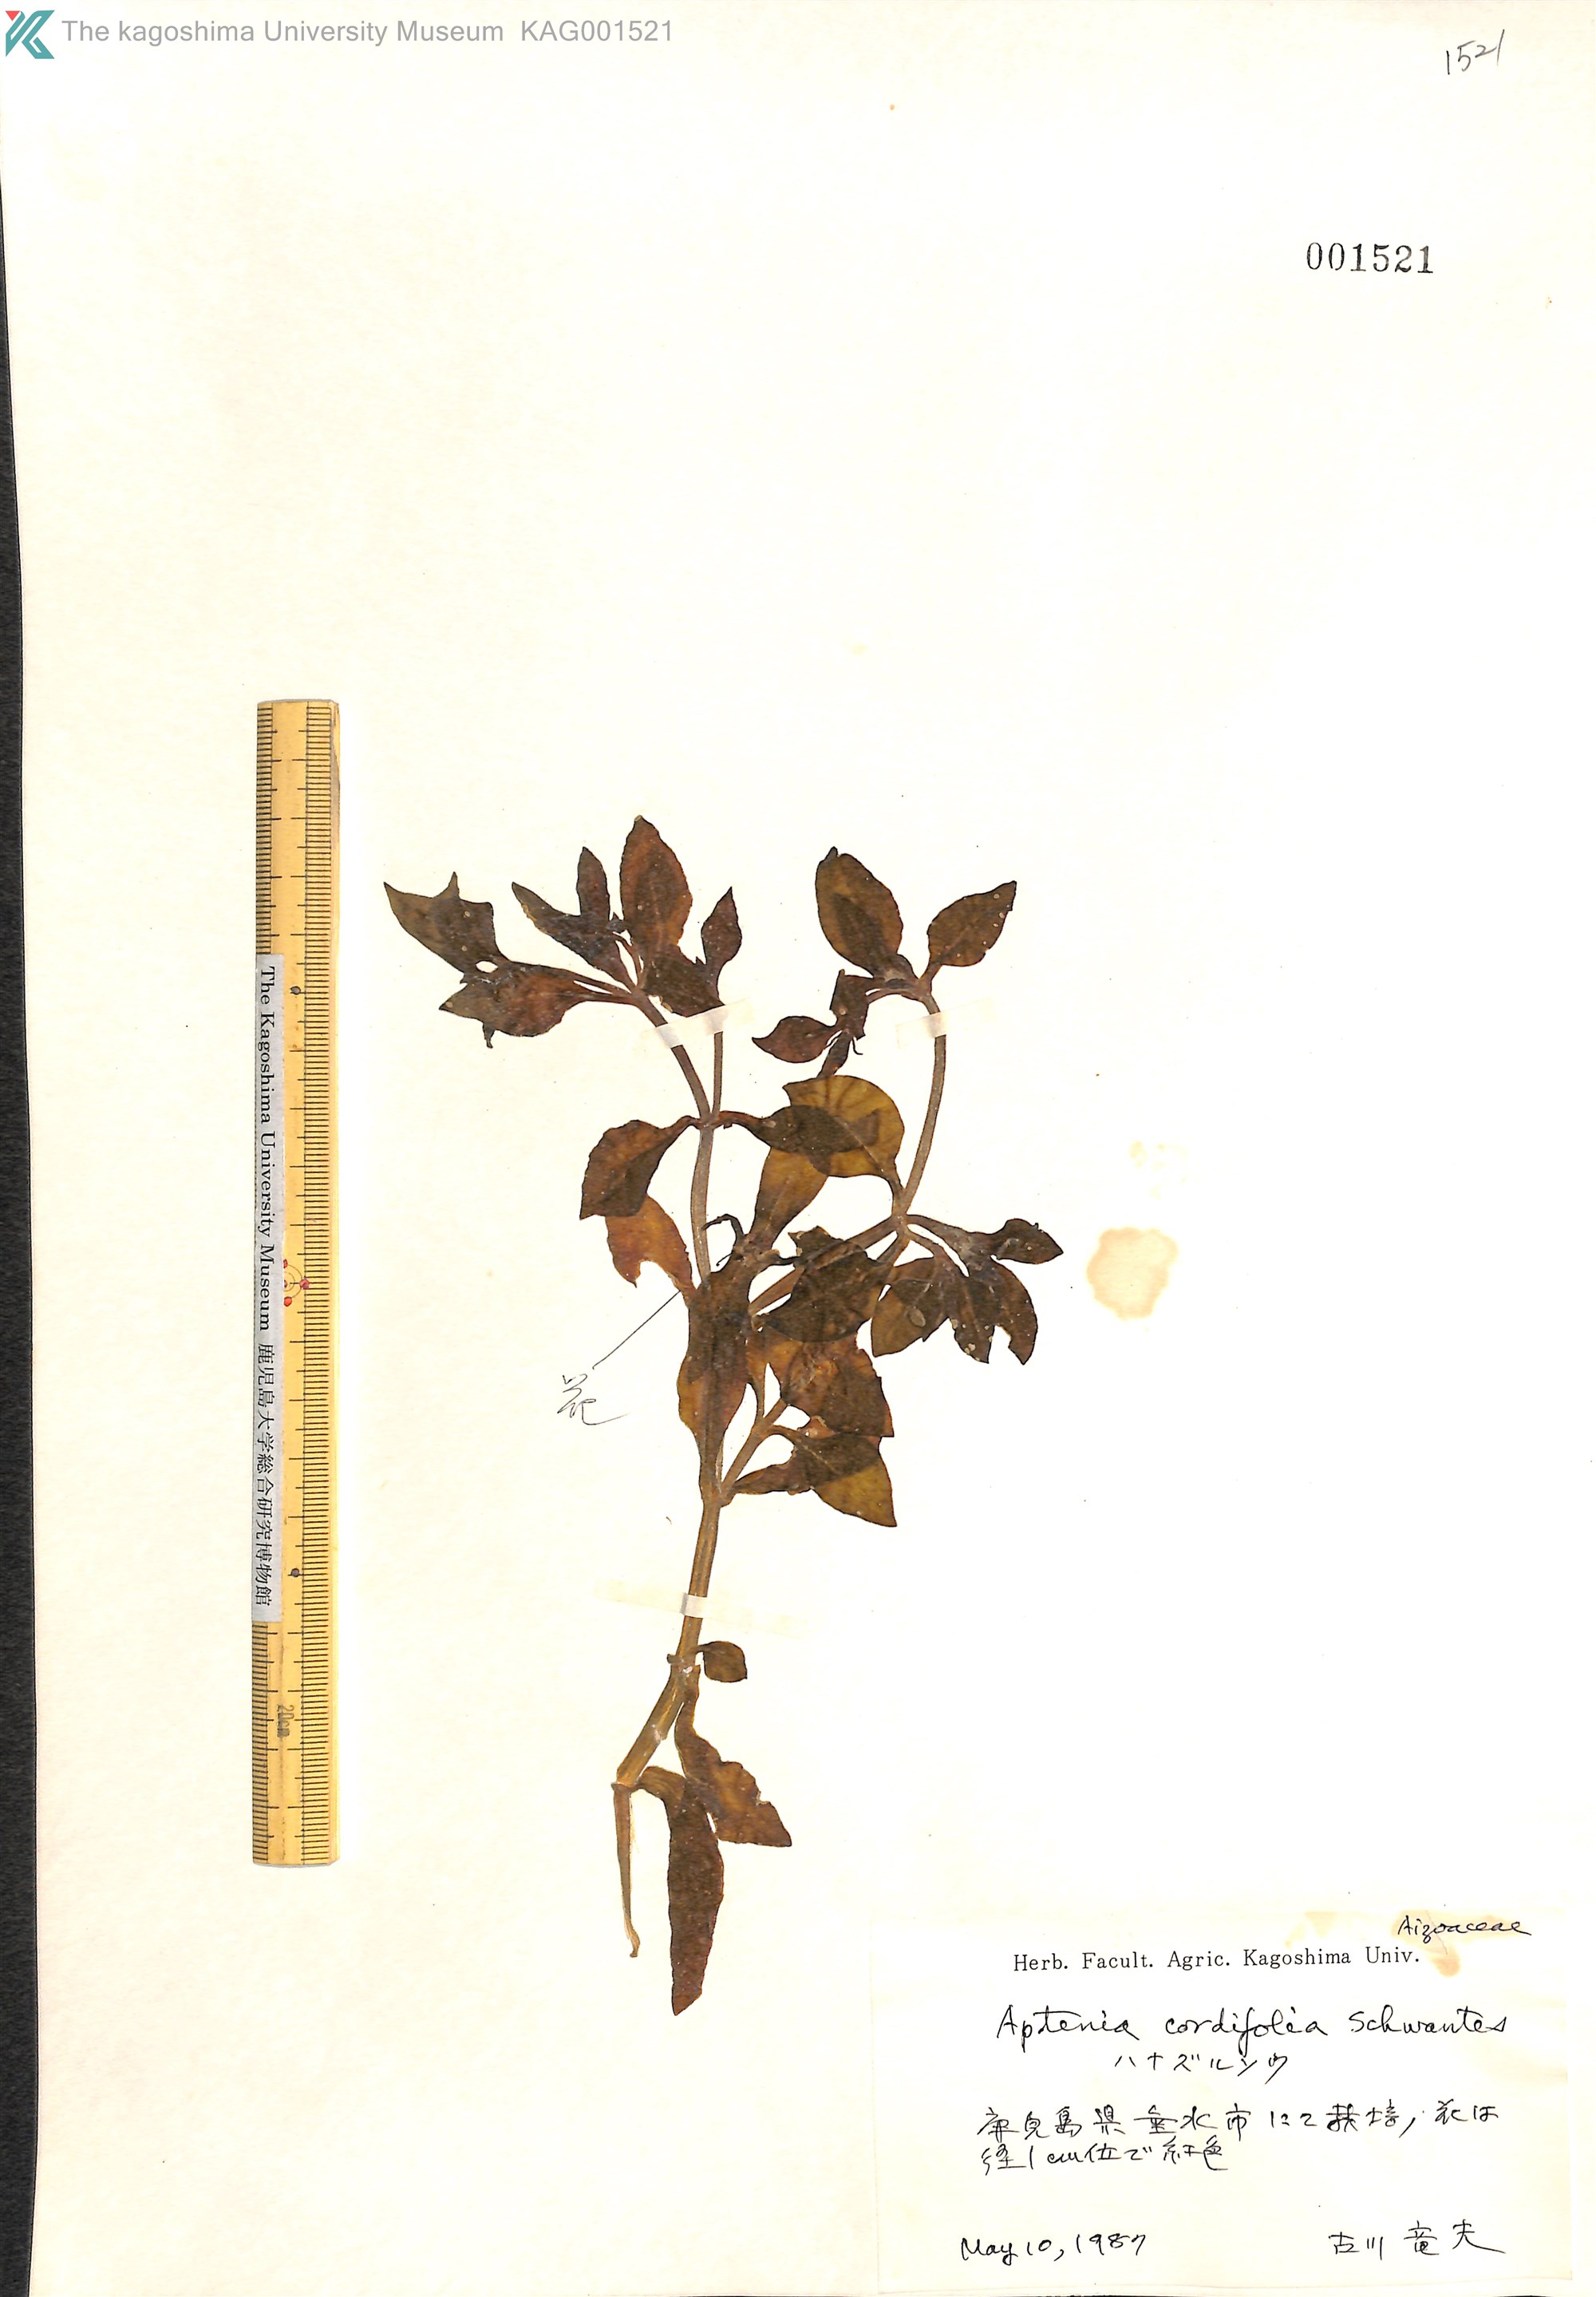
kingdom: Plantae
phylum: Tracheophyta
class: Magnoliopsida
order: Caryophyllales
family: Aizoaceae
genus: Mesembryanthemum
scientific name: Mesembryanthemum cordifolium
